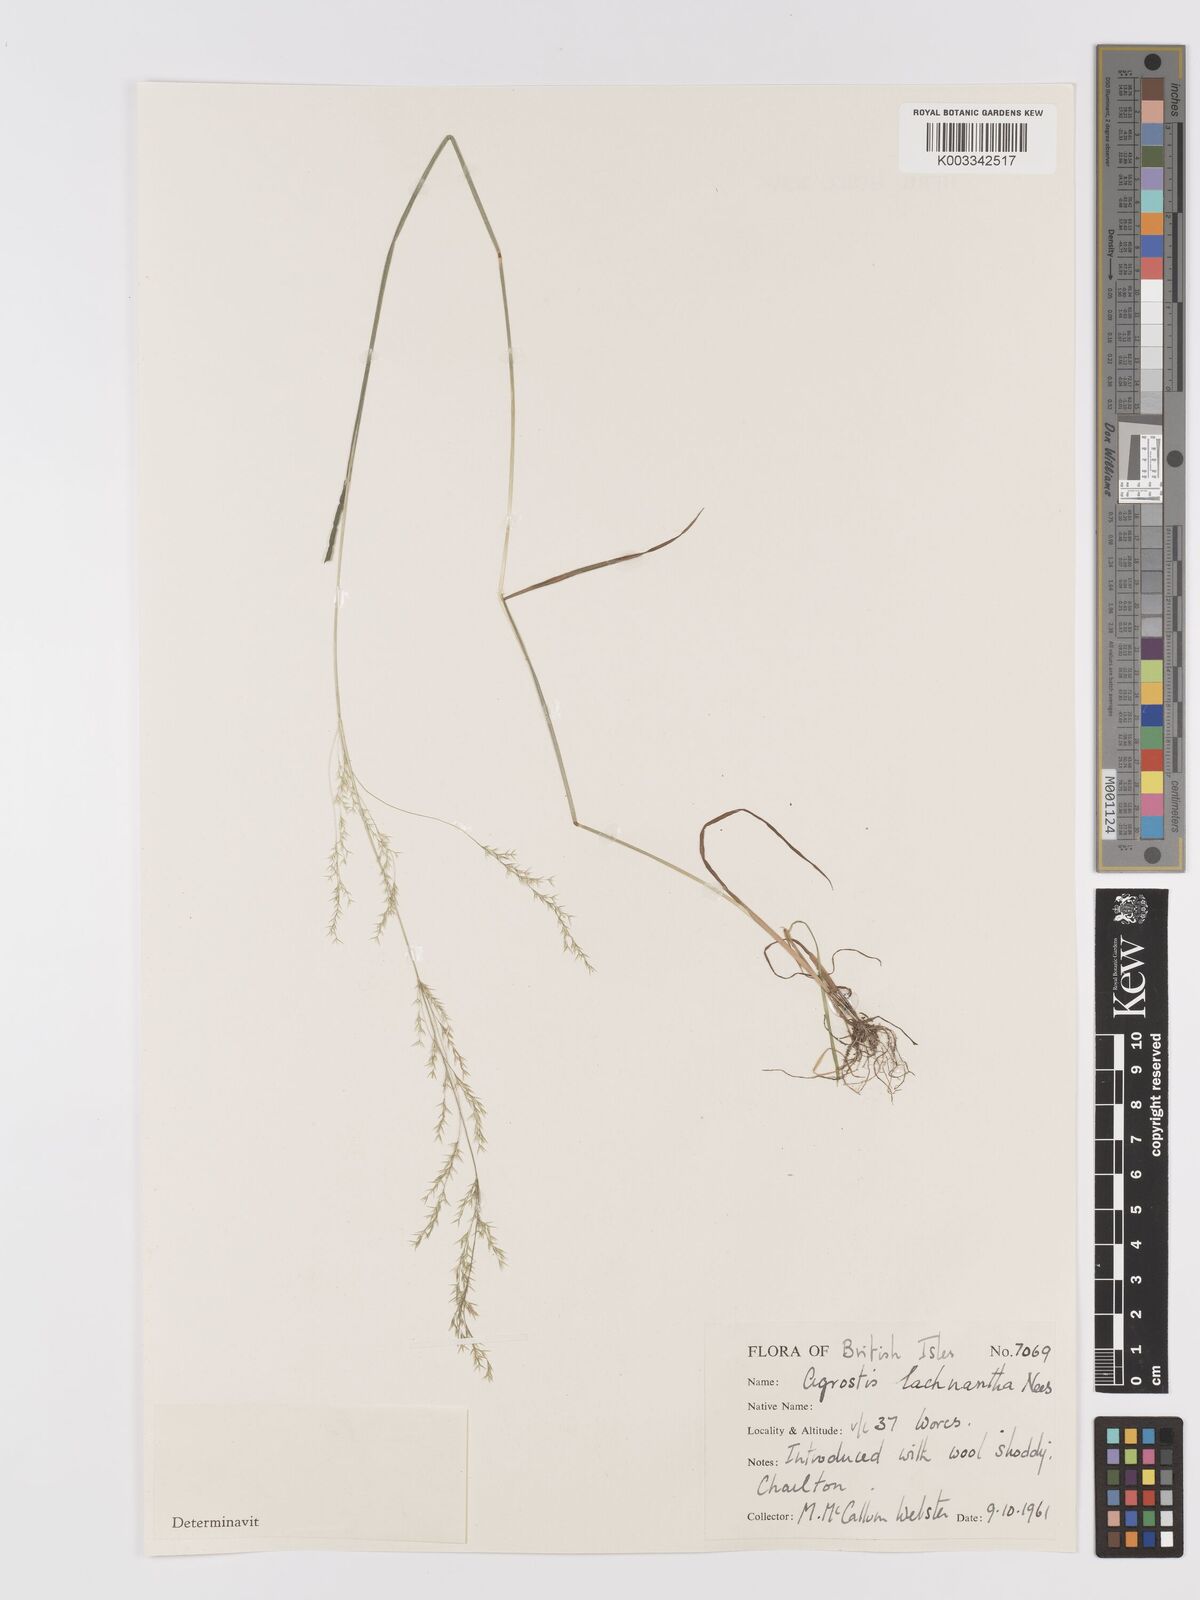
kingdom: Plantae
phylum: Tracheophyta
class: Liliopsida
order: Poales
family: Poaceae
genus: Lachnagrostis
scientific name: Lachnagrostis lachnantha
